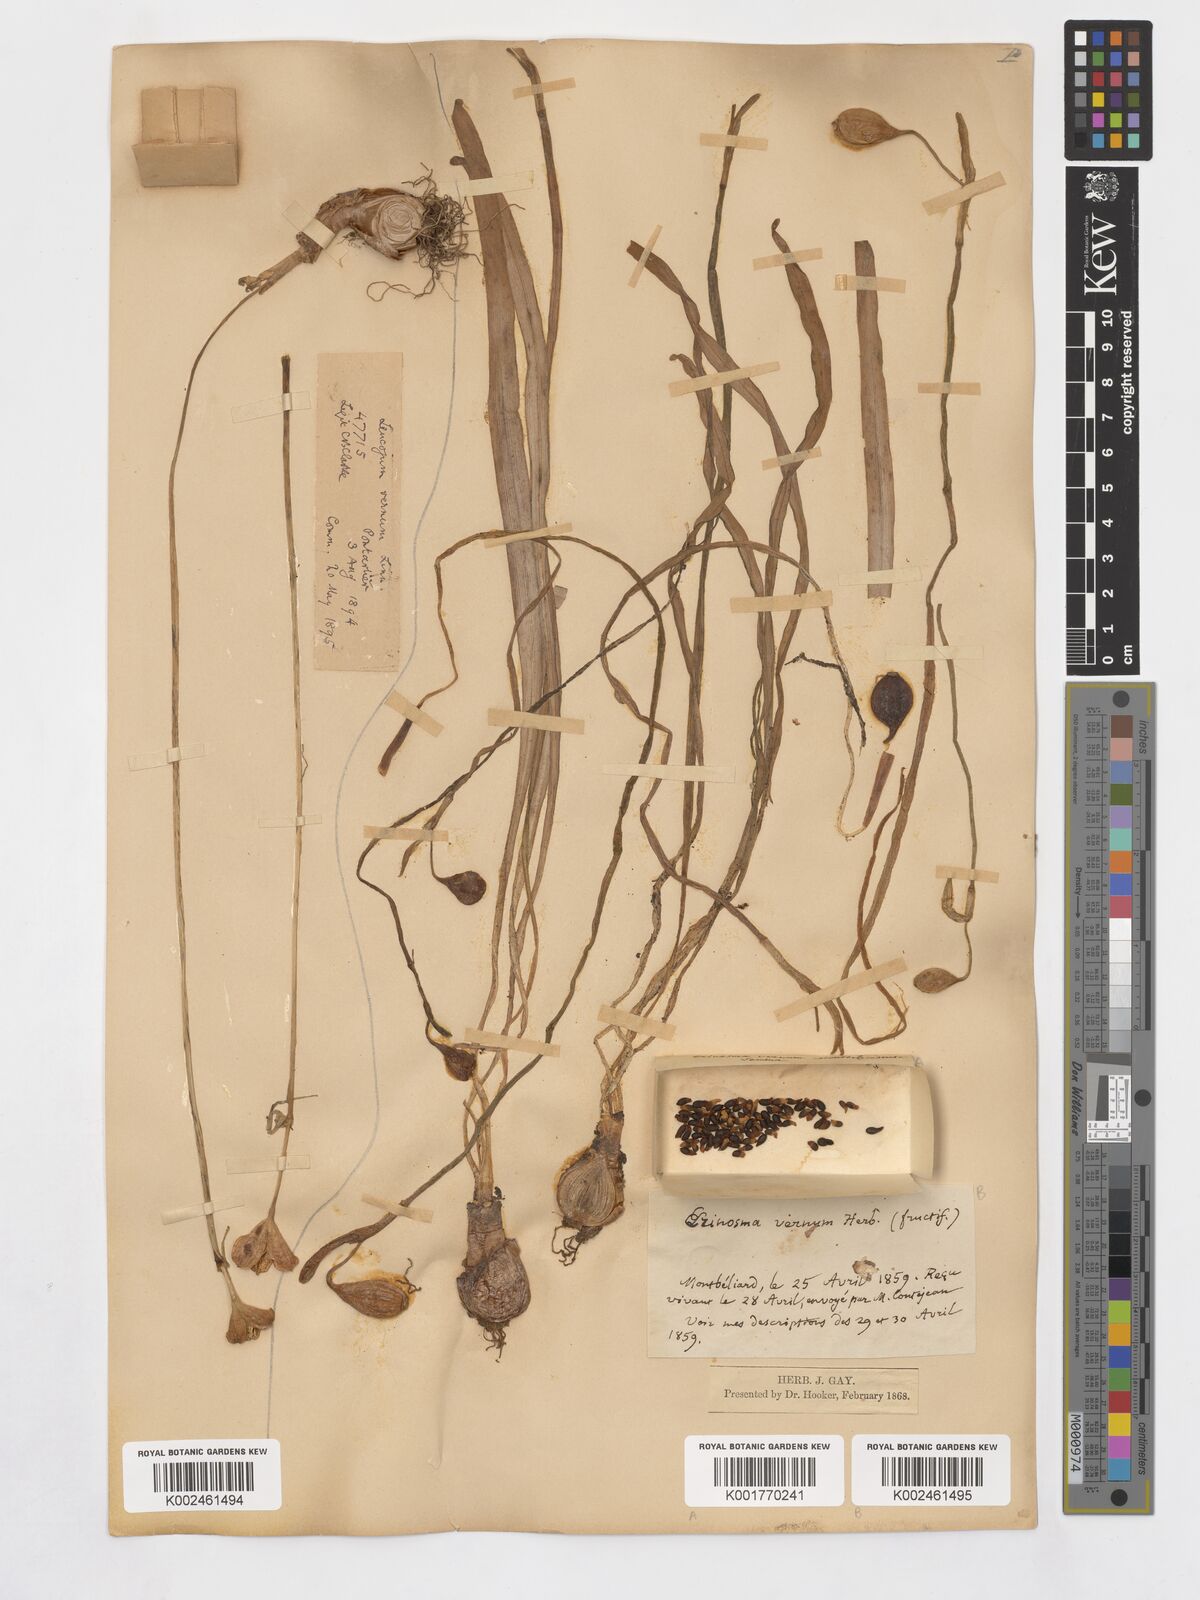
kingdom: Plantae
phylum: Tracheophyta
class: Liliopsida
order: Asparagales
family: Amaryllidaceae
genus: Leucojum
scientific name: Leucojum vernum
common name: Spring snowflake
